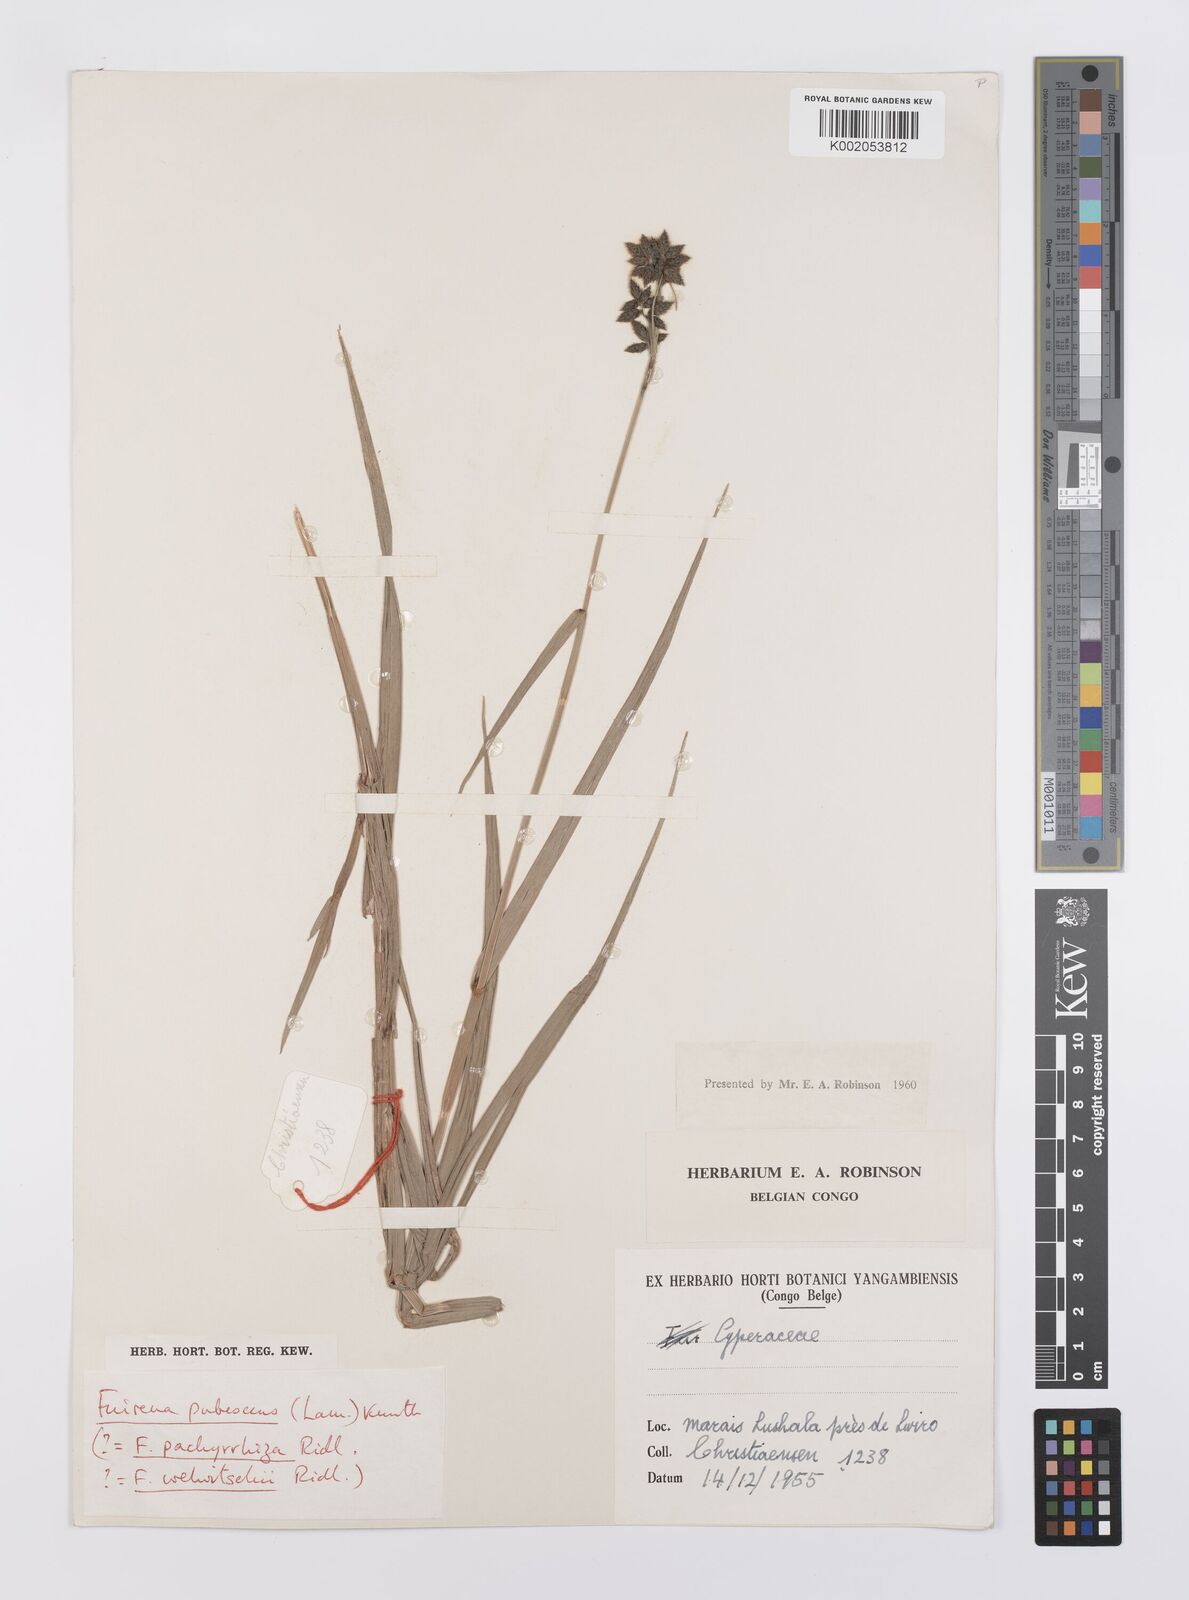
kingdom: Plantae
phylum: Tracheophyta
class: Liliopsida
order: Poales
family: Cyperaceae
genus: Fuirena
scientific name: Fuirena pubescens
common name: Hairy sedge
